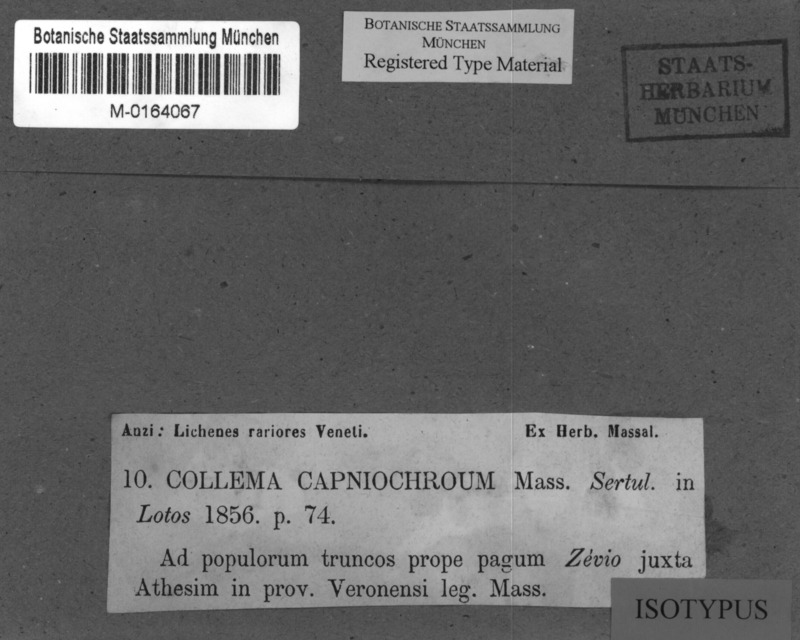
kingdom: Fungi
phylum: Ascomycota
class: Lecanoromycetes
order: Peltigerales
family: Collemataceae
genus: Scytinium
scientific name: Scytinium fragrans
